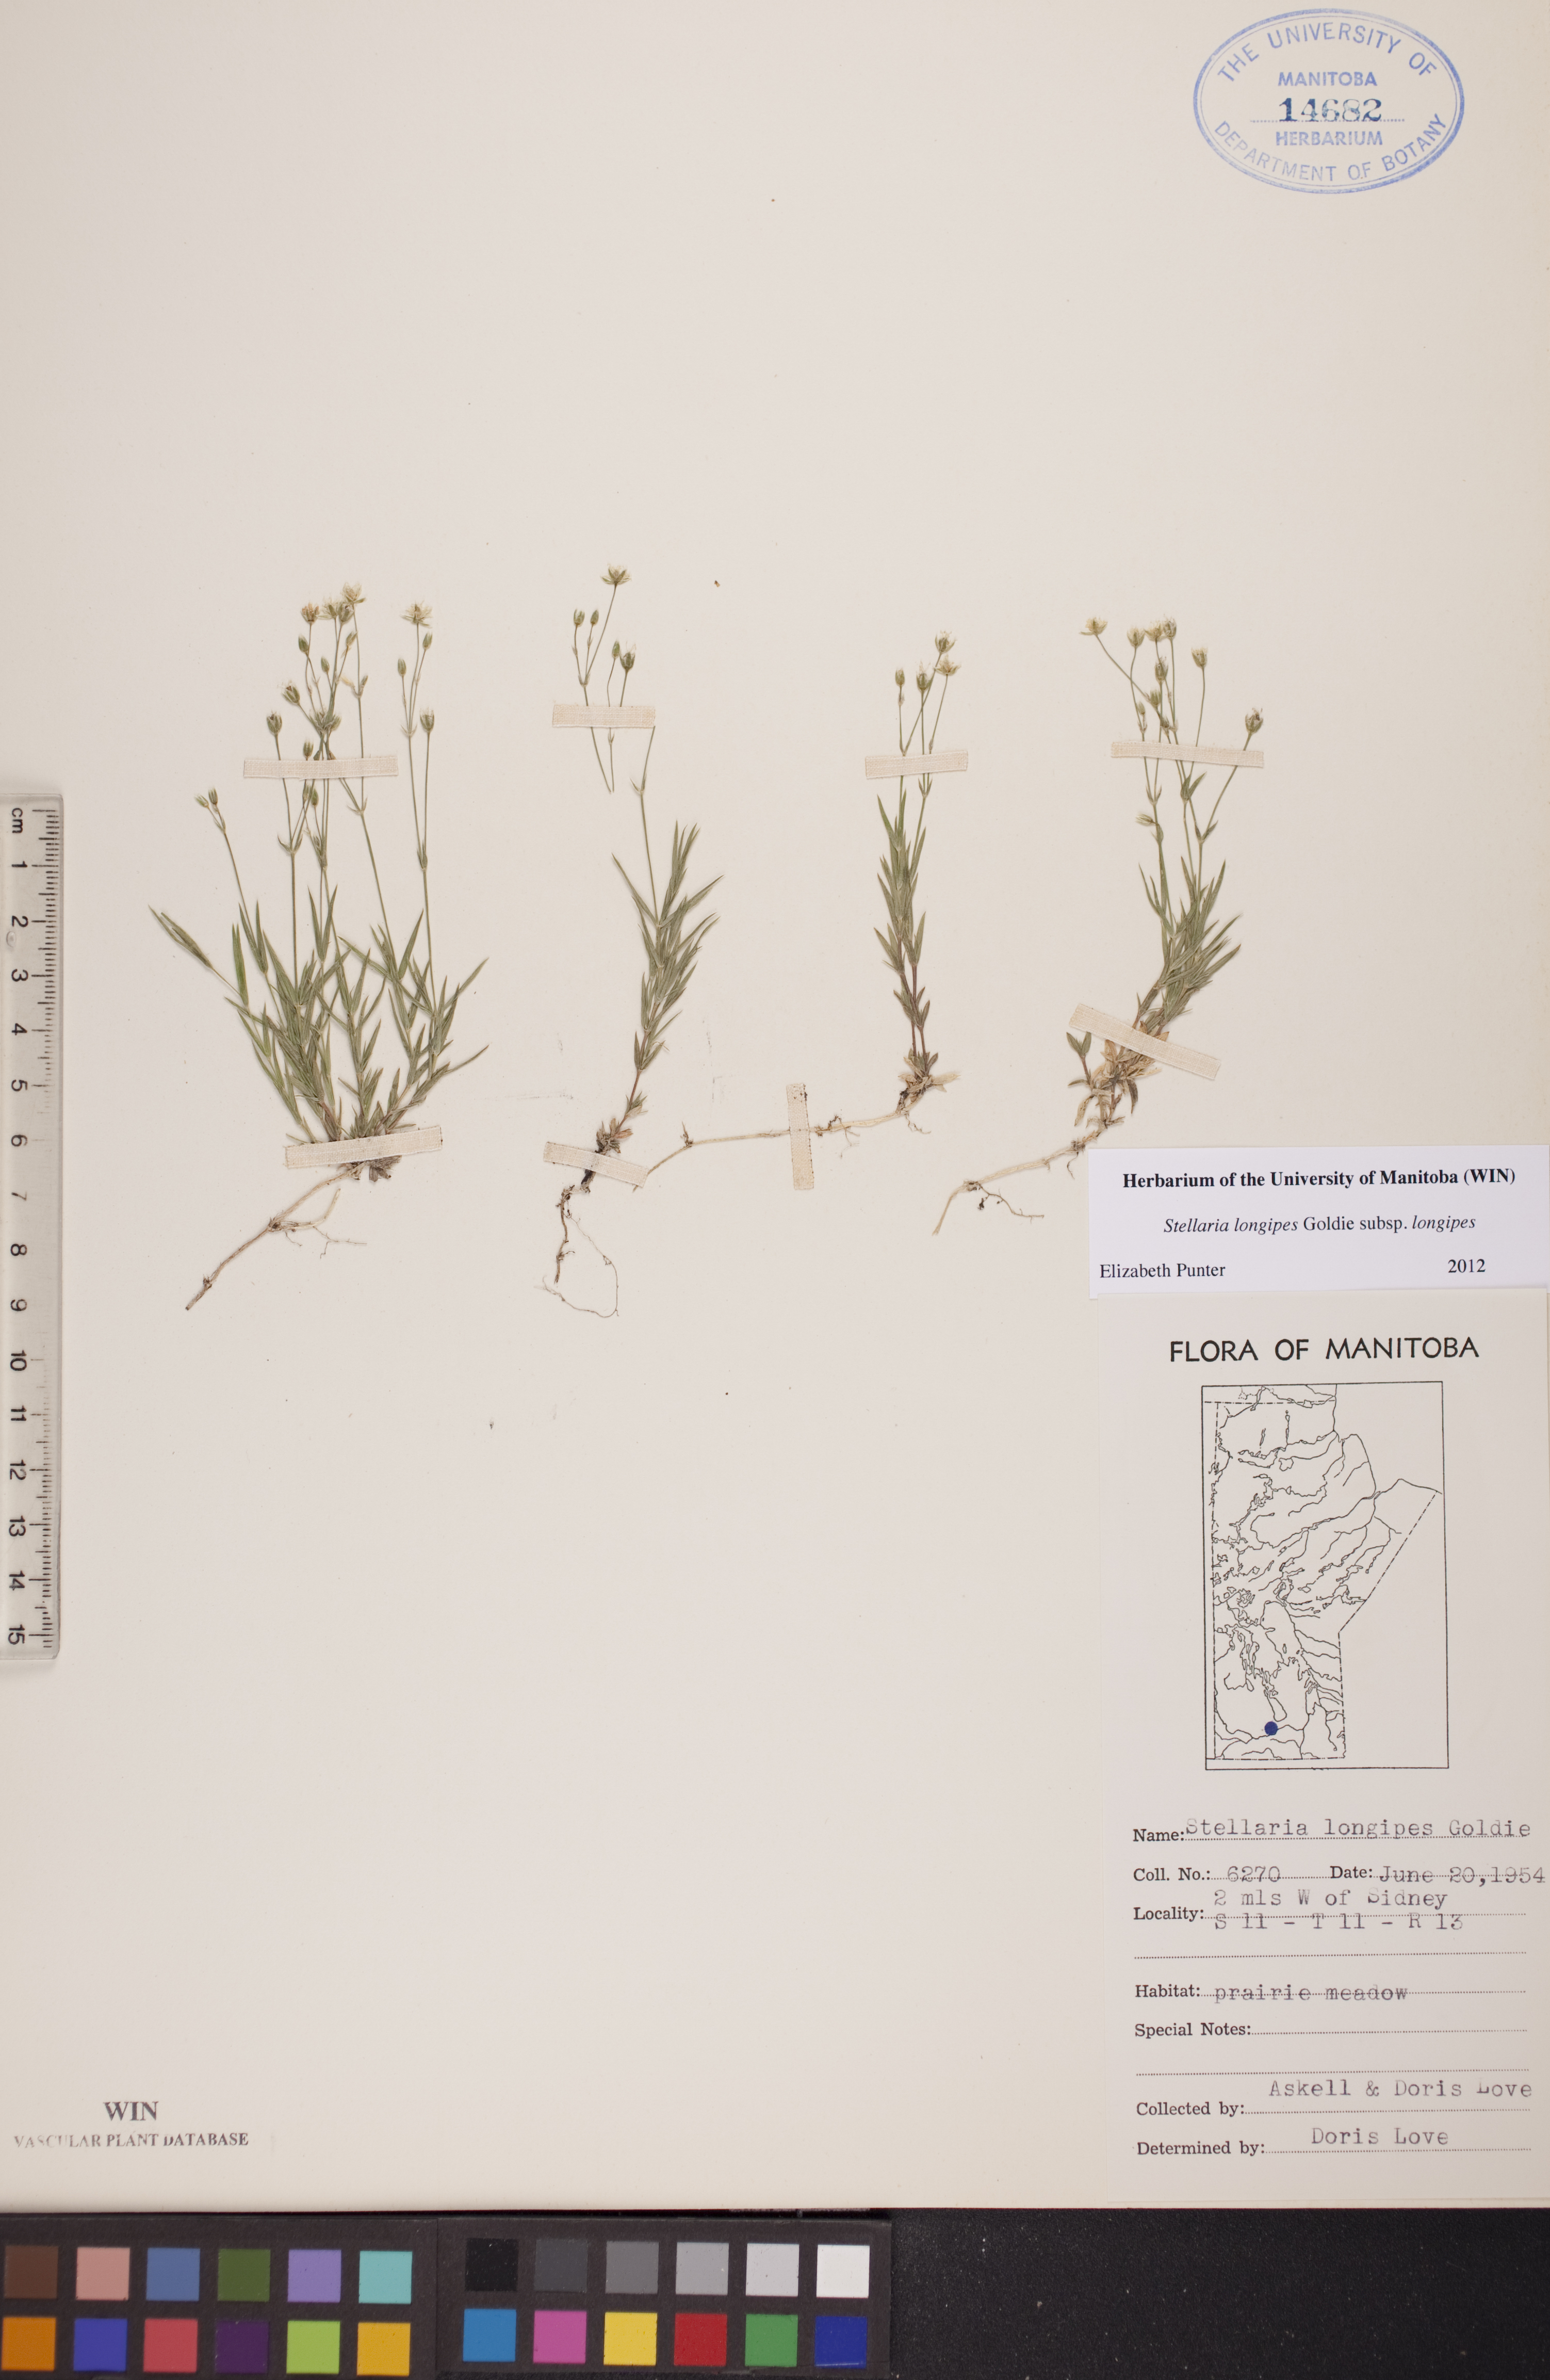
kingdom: Plantae
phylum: Tracheophyta
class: Magnoliopsida
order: Caryophyllales
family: Caryophyllaceae
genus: Stellaria
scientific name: Stellaria longipes
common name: Goldie's starwort
